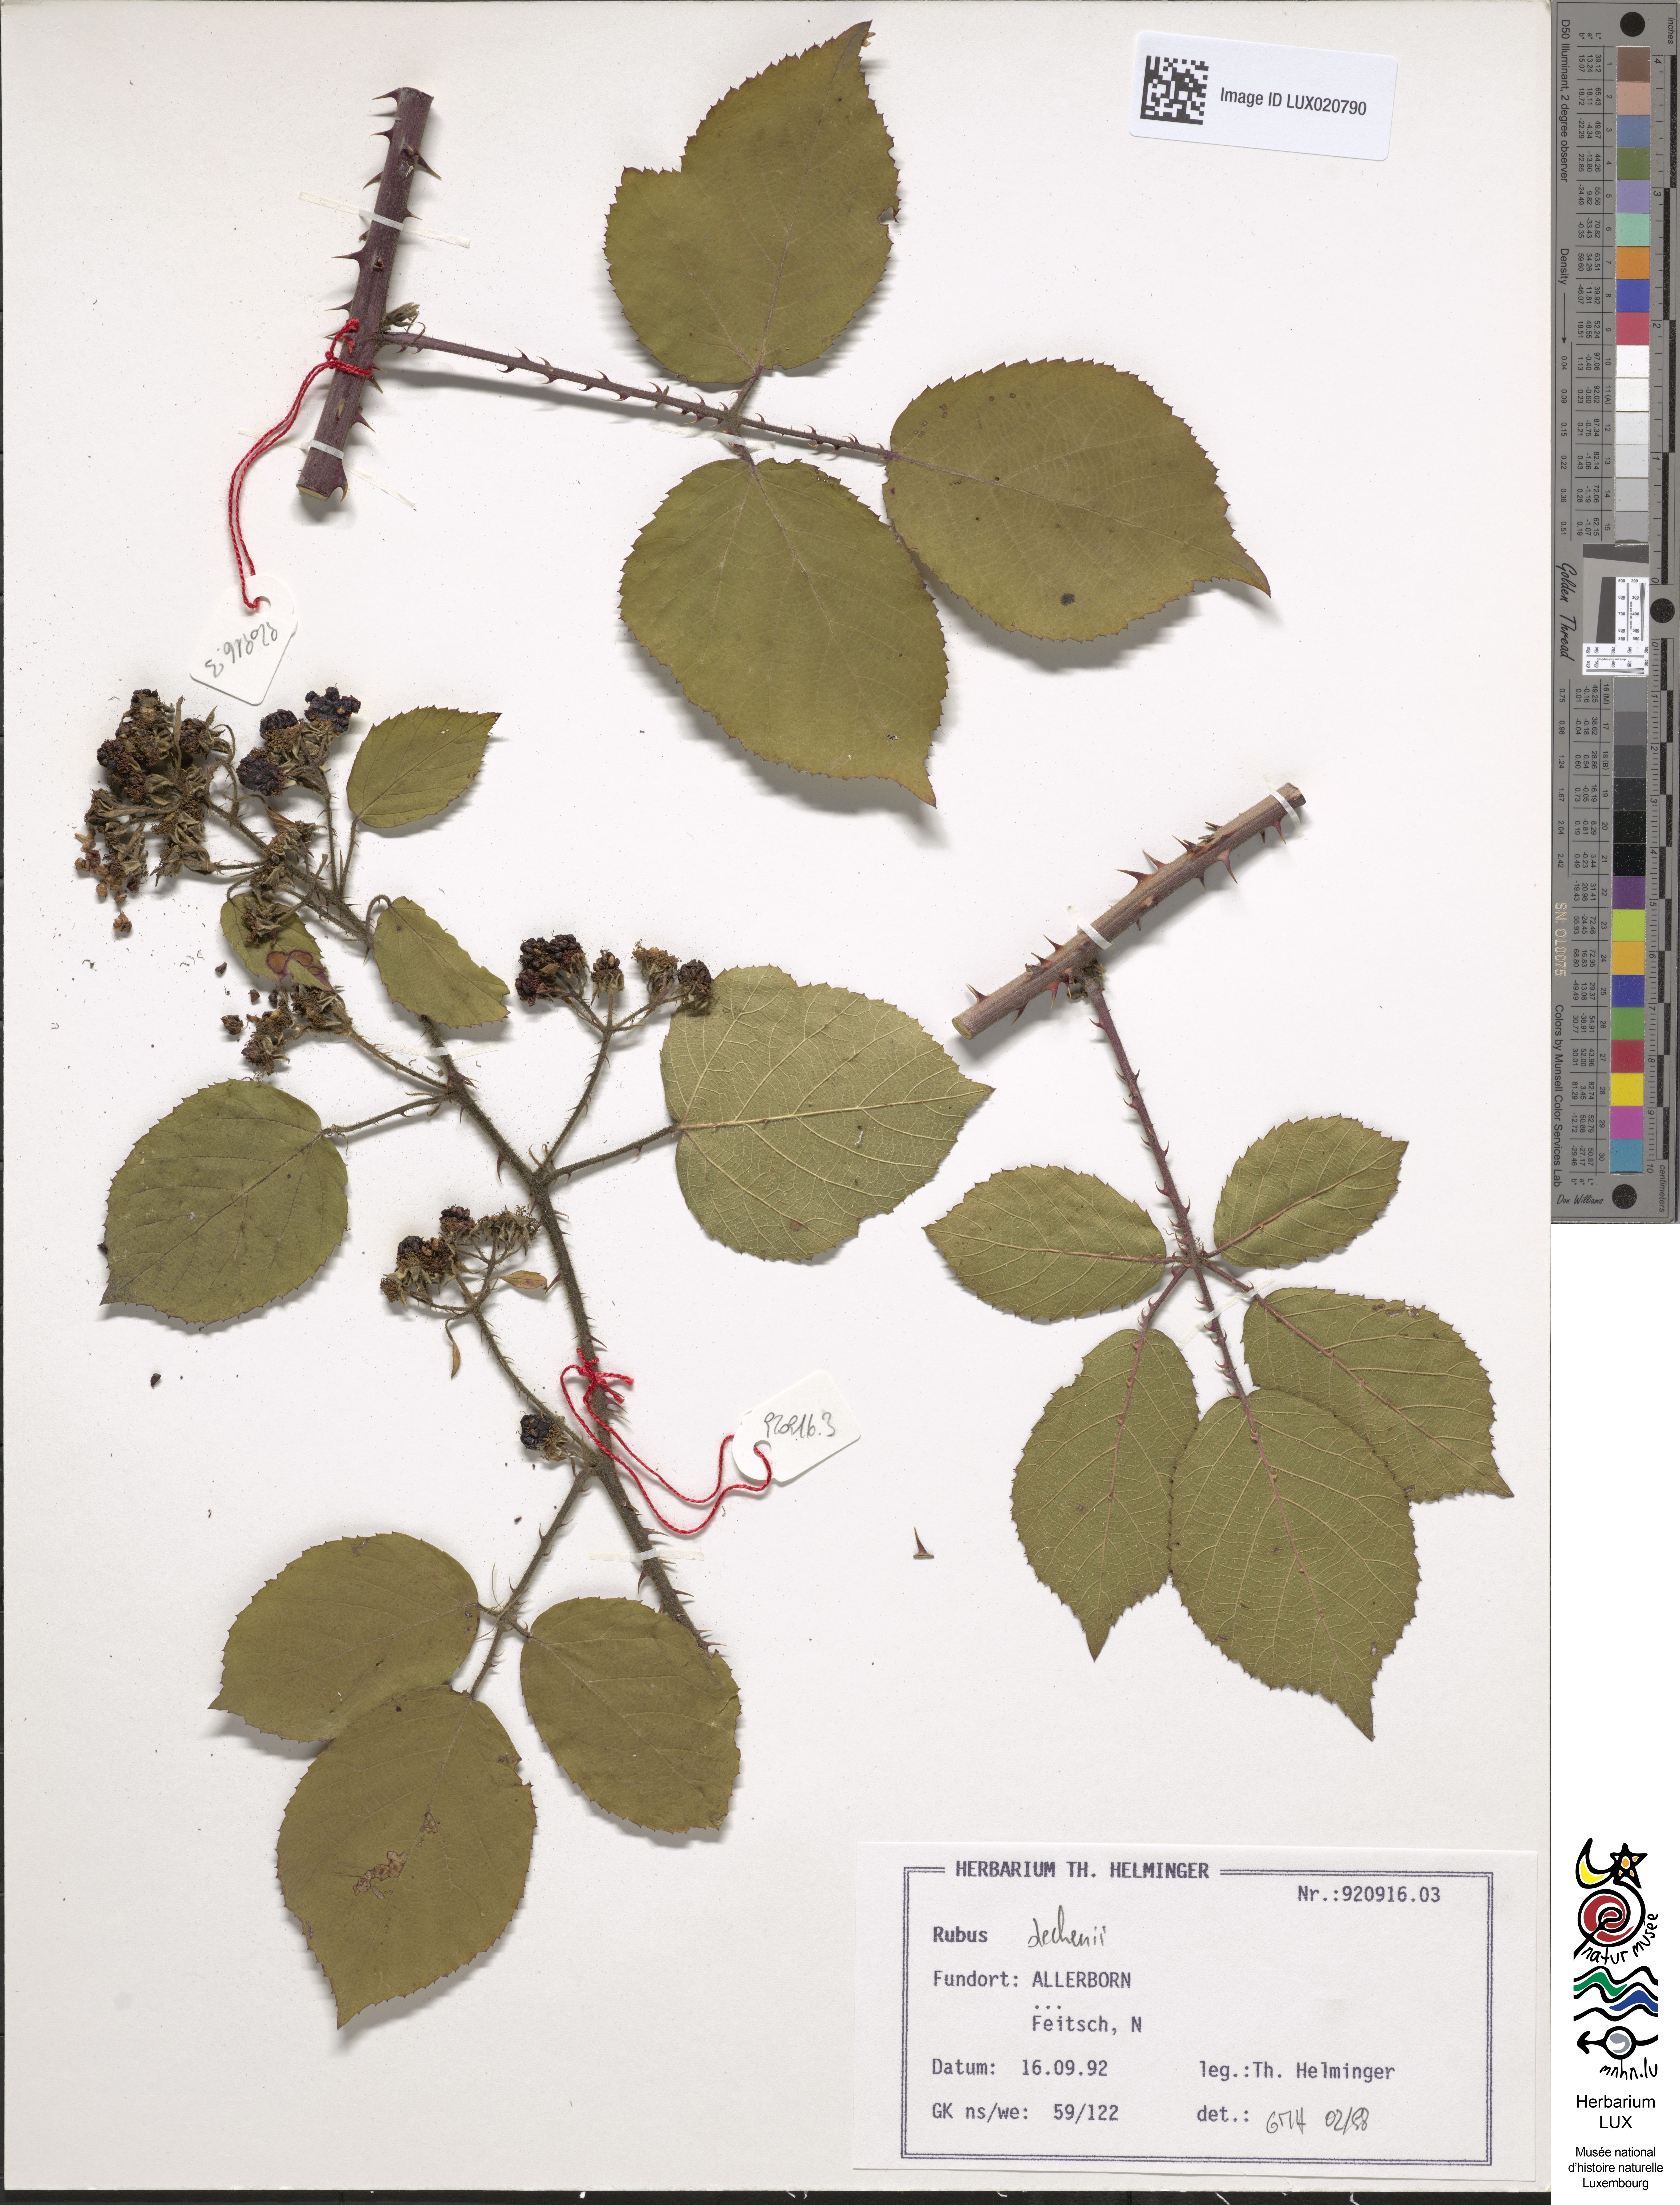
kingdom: Plantae
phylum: Tracheophyta
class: Magnoliopsida
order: Rosales
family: Rosaceae
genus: Rubus
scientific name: Rubus dechenii
